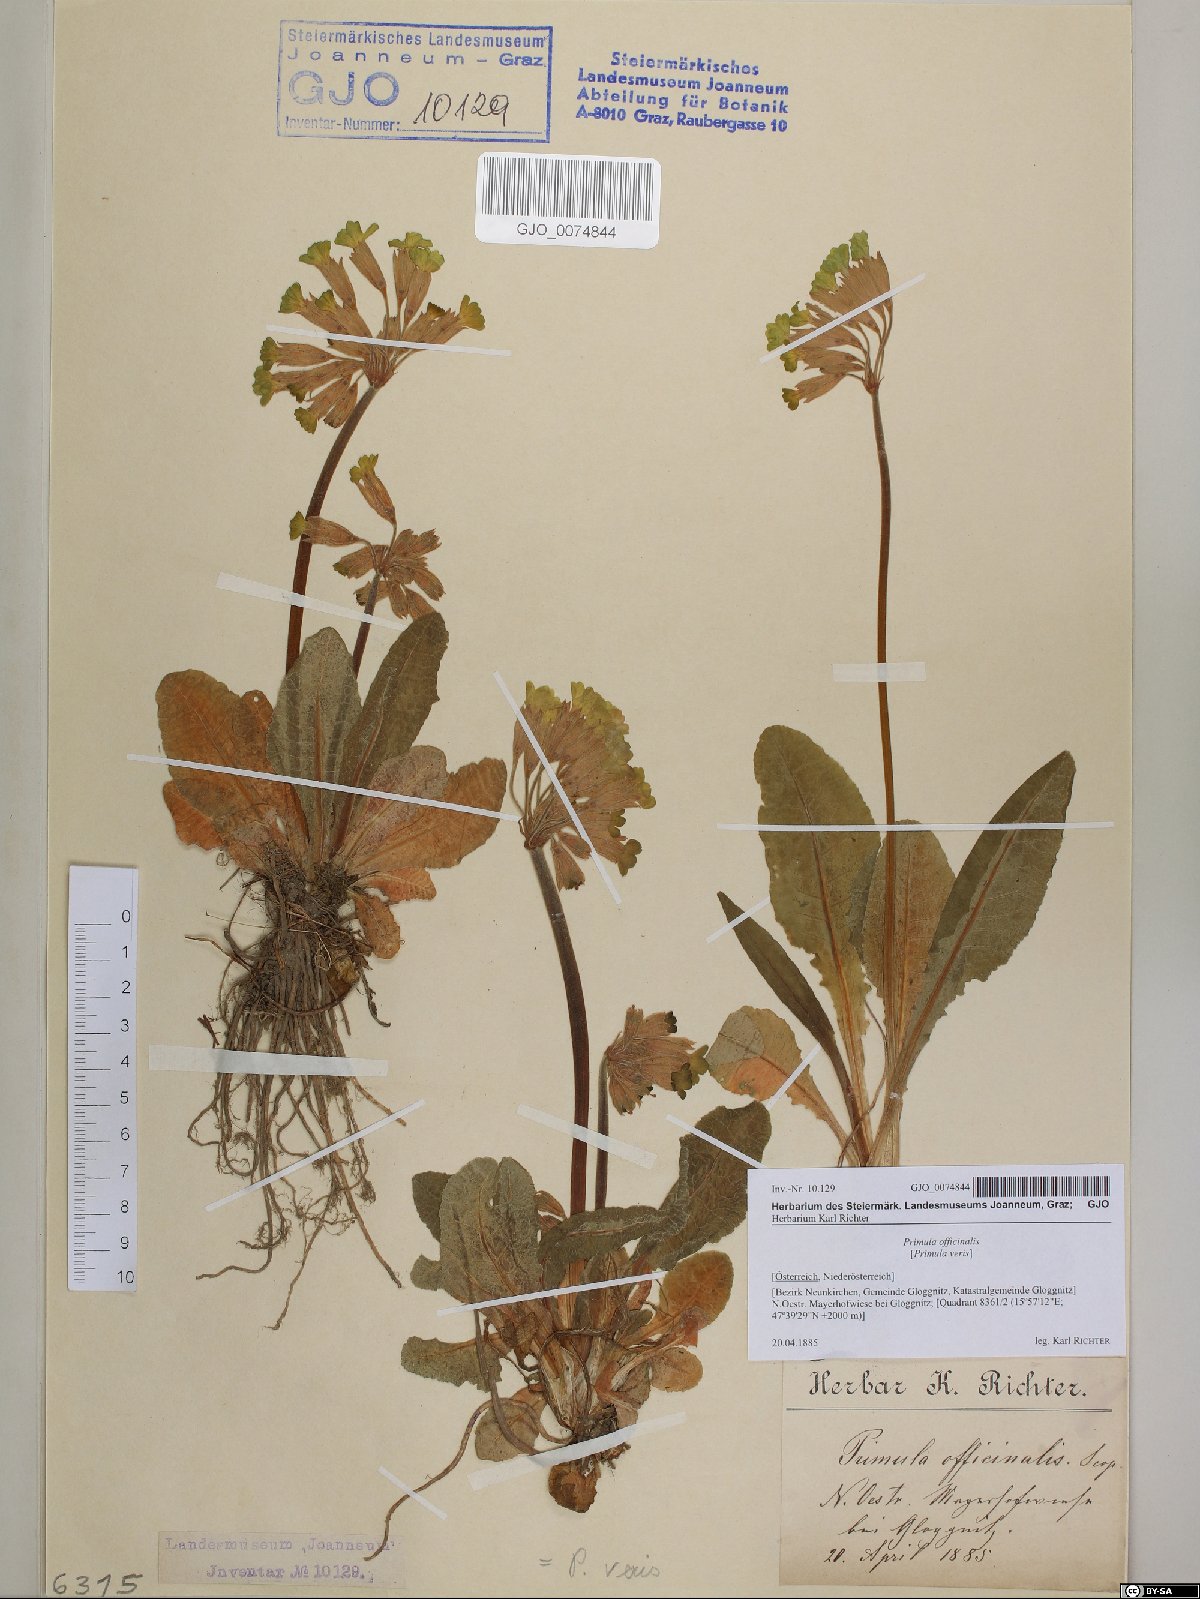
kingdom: Plantae
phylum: Tracheophyta
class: Magnoliopsida
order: Ericales
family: Primulaceae
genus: Primula
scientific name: Primula veris
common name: Cowslip
